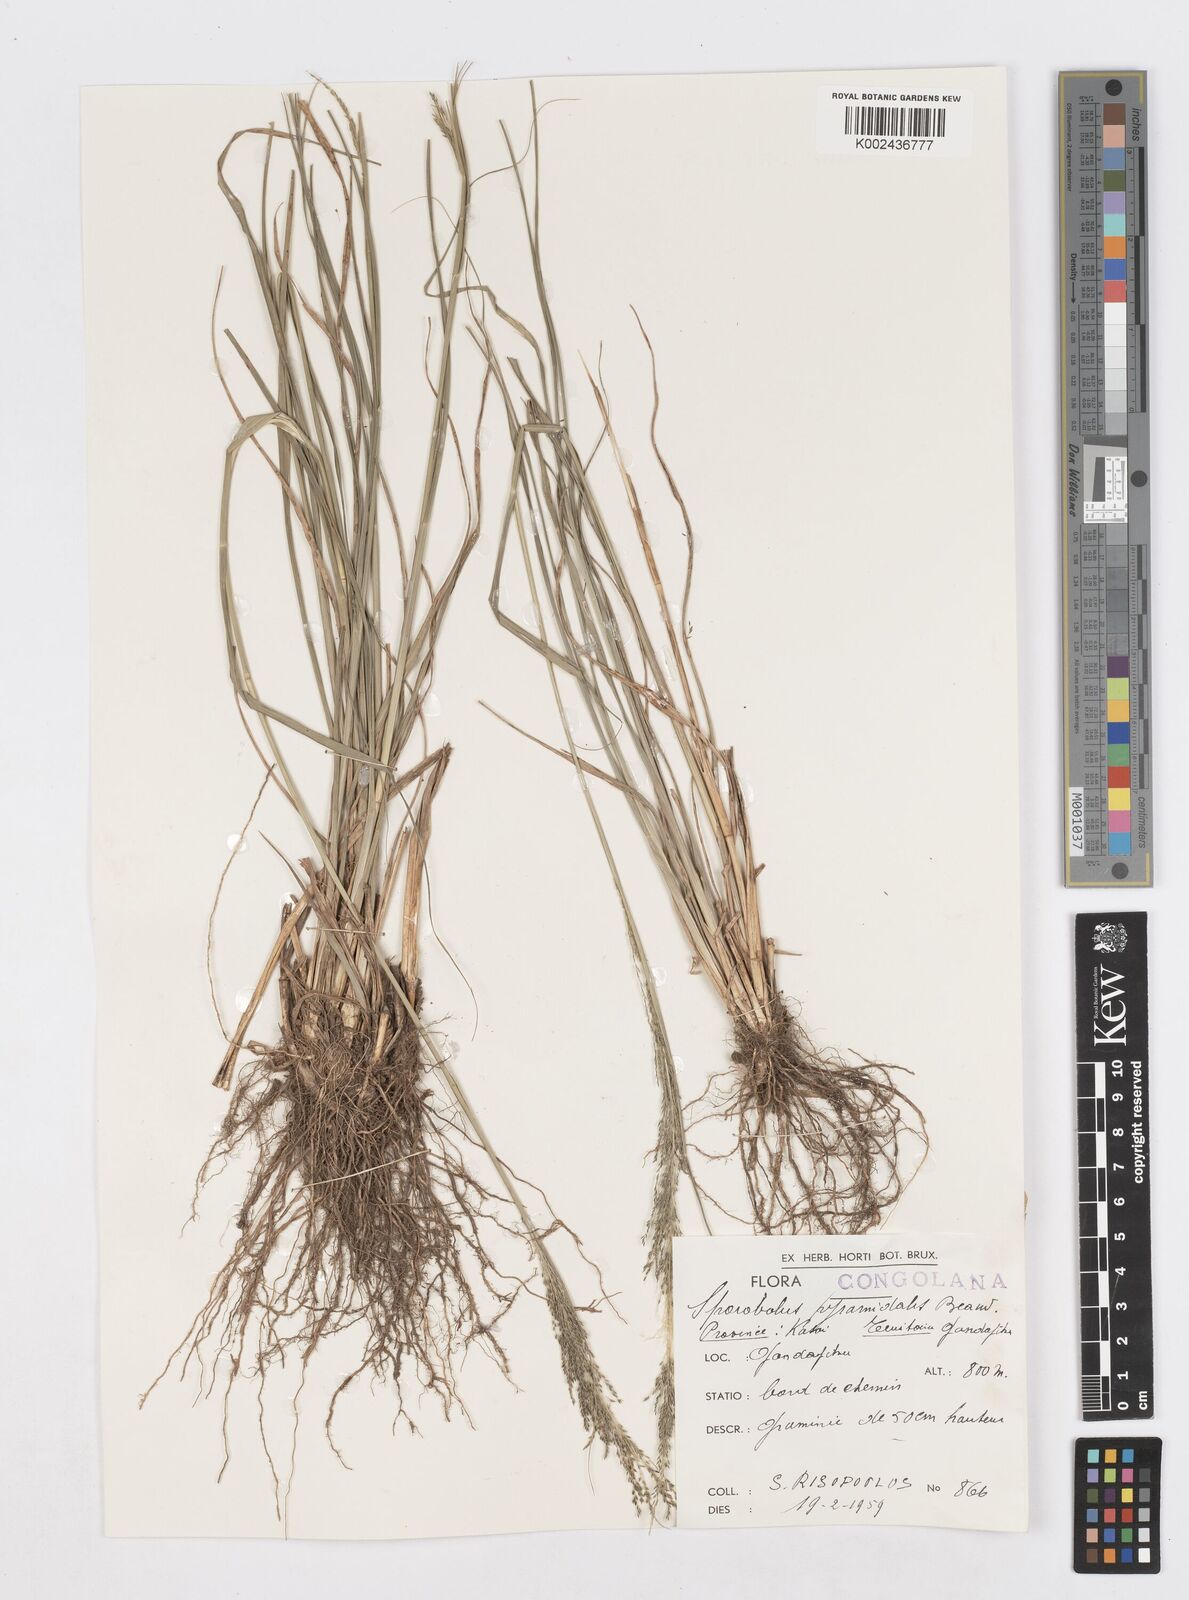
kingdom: Plantae
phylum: Tracheophyta
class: Liliopsida
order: Poales
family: Poaceae
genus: Sporobolus
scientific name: Sporobolus pyramidalis
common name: West indian dropseed
